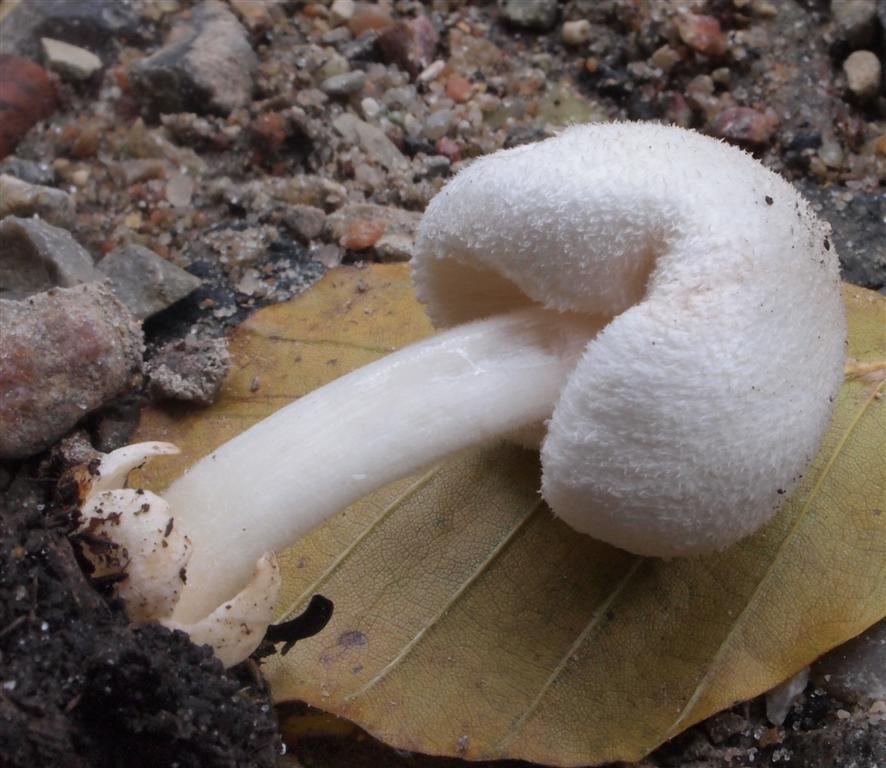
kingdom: Fungi
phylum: Basidiomycota
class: Agaricomycetes
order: Agaricales
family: Pluteaceae
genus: Volvariella
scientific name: Volvariella hypopithys
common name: dunstokket posesvamp
